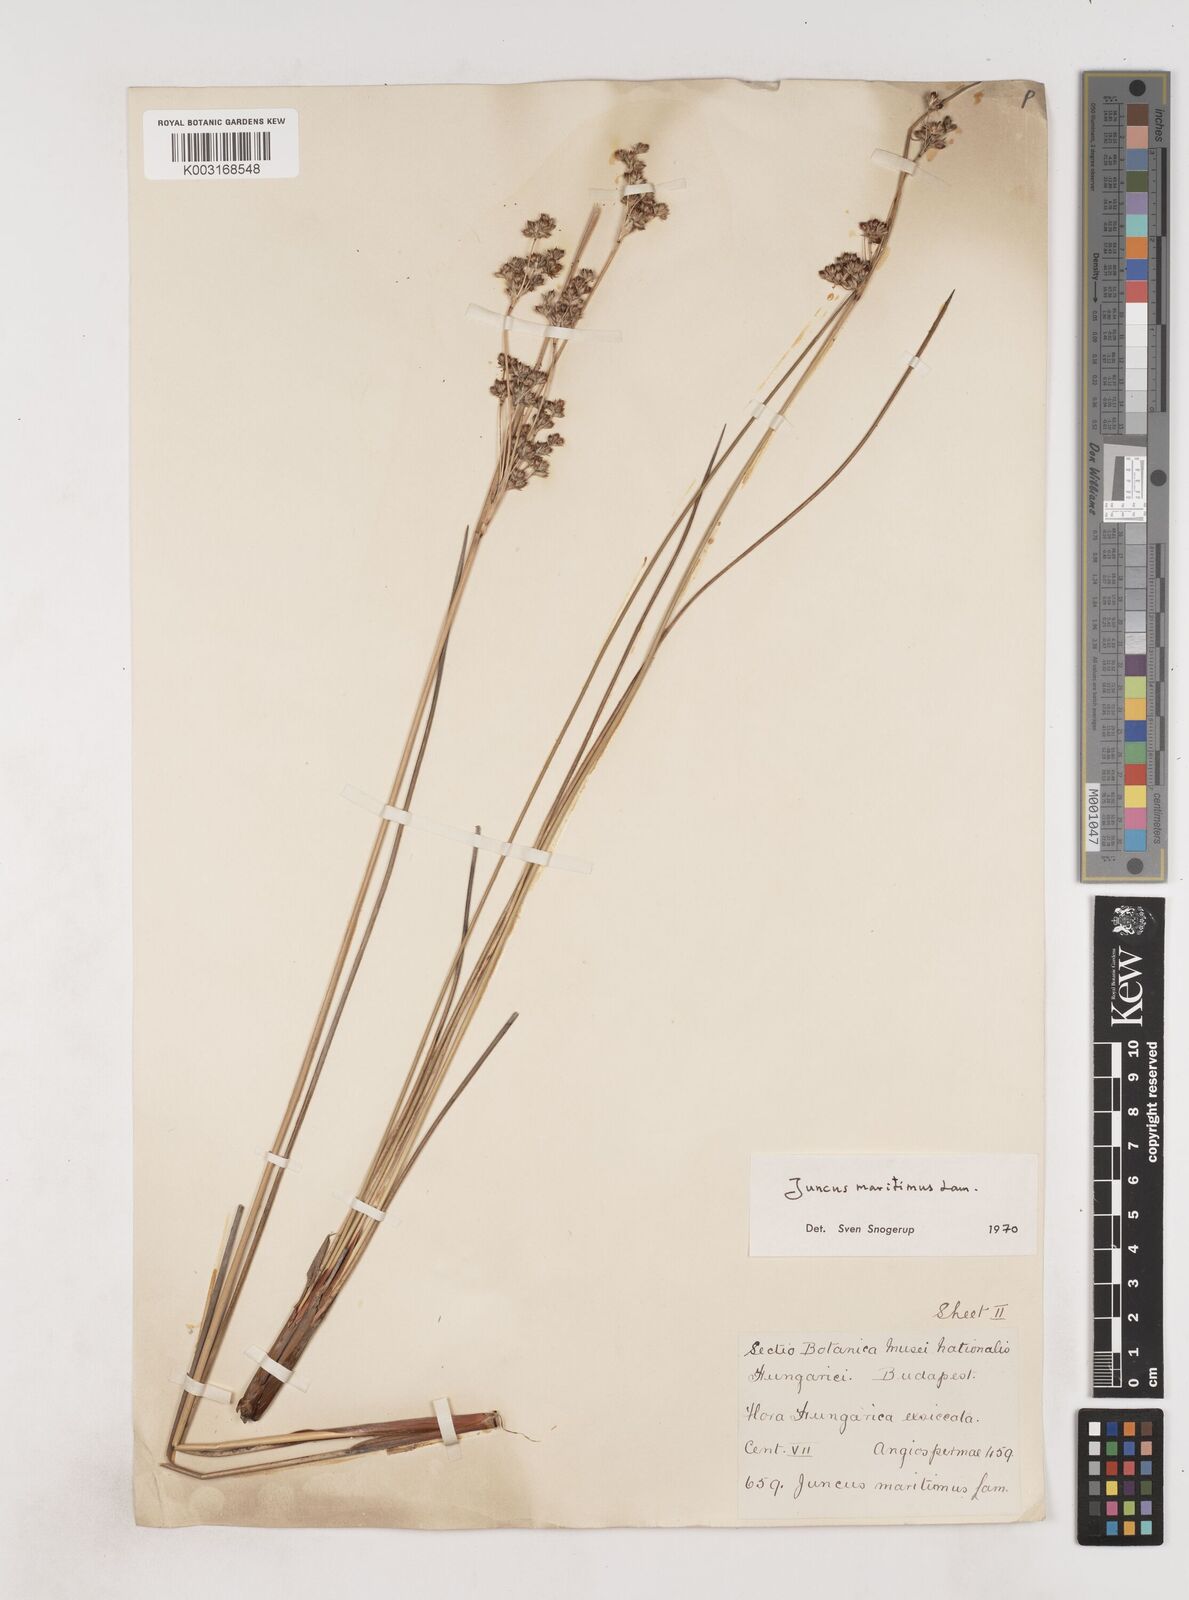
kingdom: Plantae
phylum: Tracheophyta
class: Liliopsida
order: Poales
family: Juncaceae
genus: Juncus
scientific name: Juncus maritimus
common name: Sea rush
